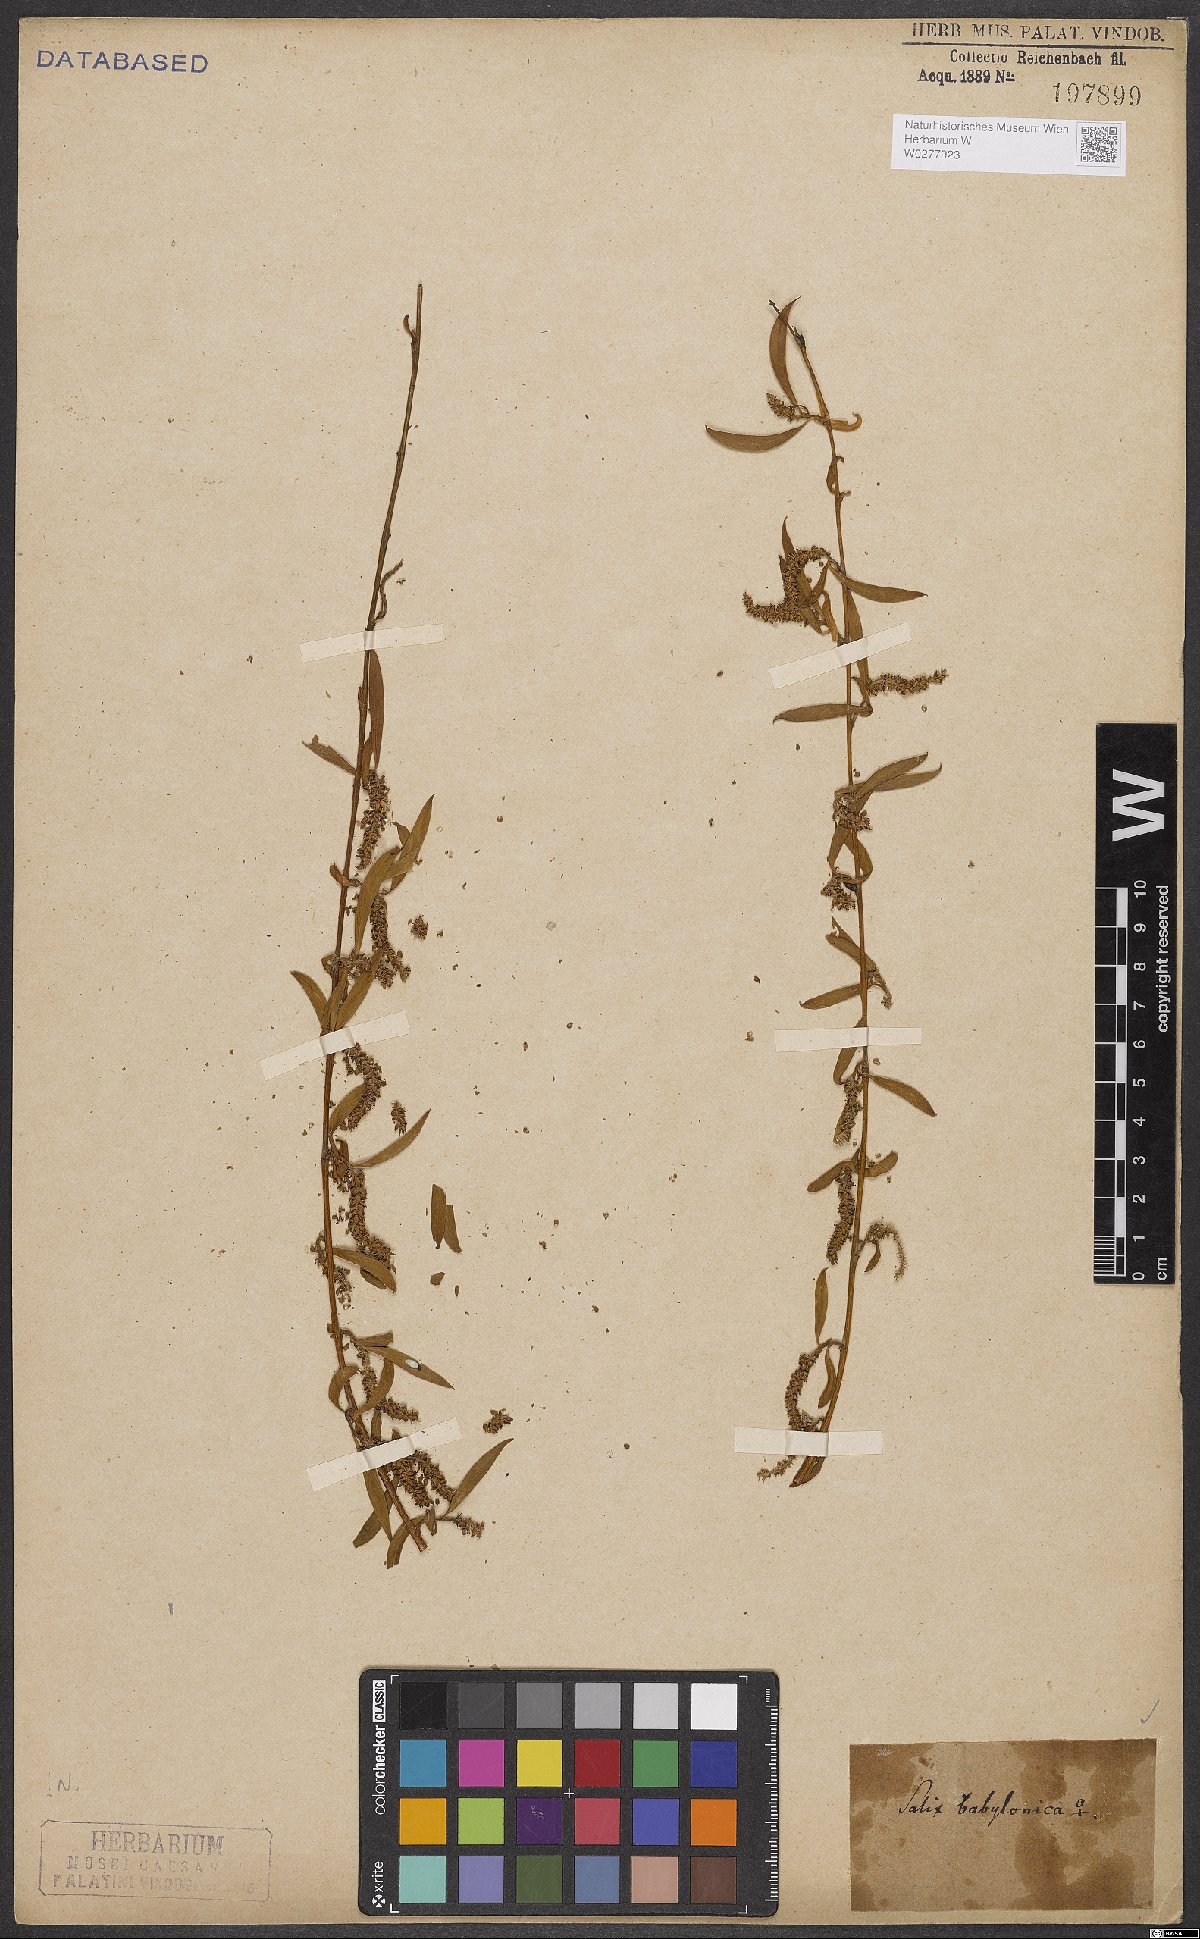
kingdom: Plantae
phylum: Tracheophyta
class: Magnoliopsida
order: Malpighiales
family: Salicaceae
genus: Salix
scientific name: Salix babylonica
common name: Weeping willow
